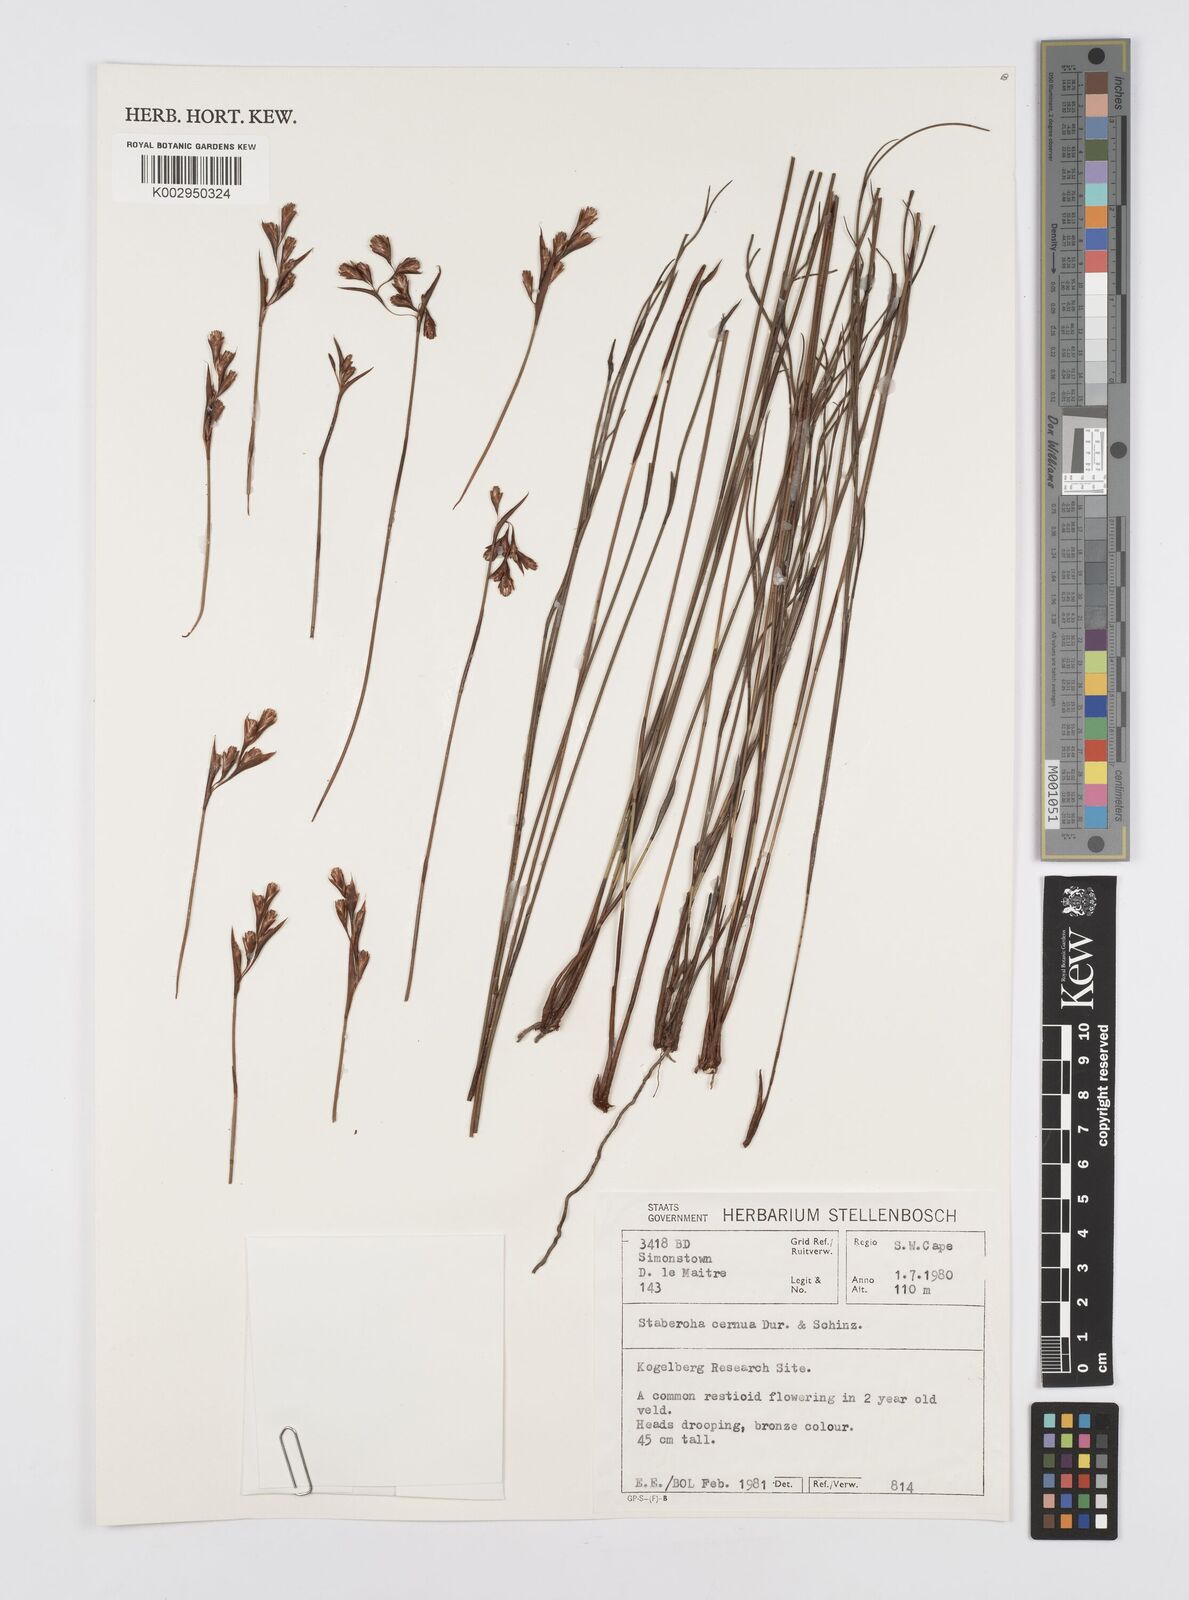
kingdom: Plantae
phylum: Tracheophyta
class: Liliopsida
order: Poales
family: Restionaceae
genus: Staberoha
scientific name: Staberoha cernua
